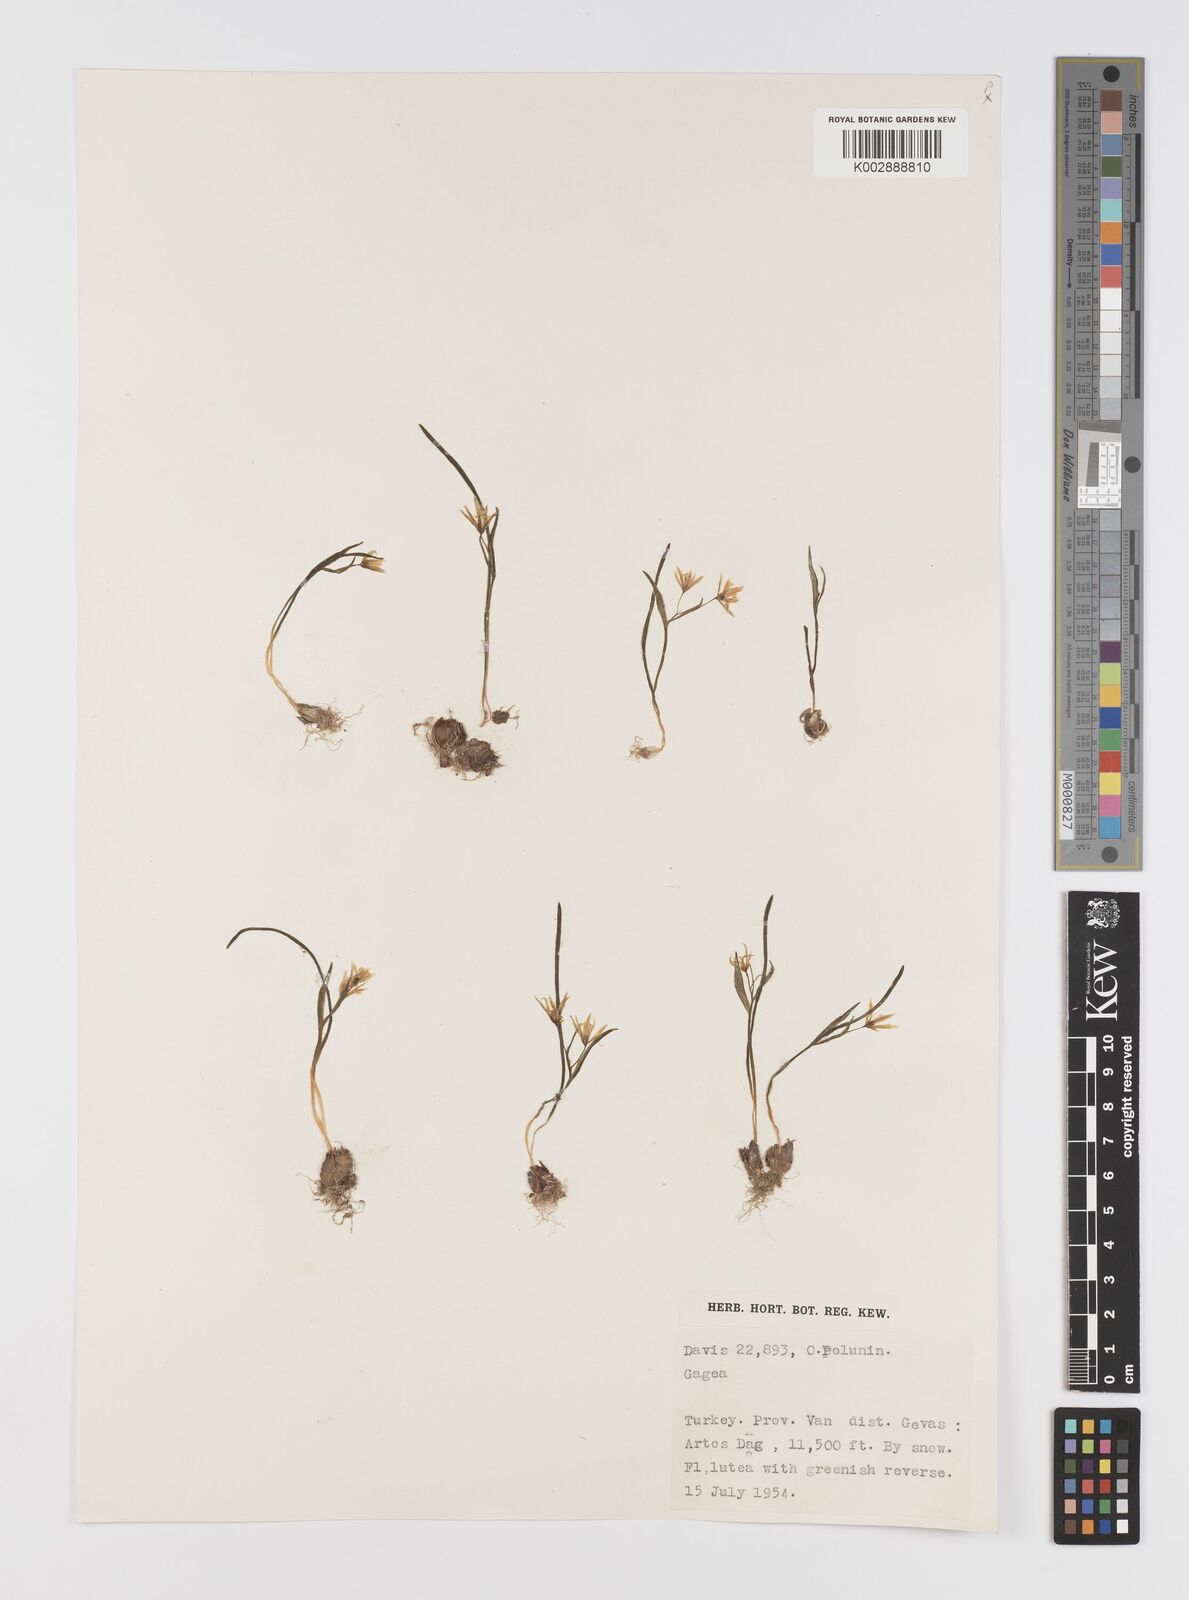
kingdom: Plantae
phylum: Tracheophyta
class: Liliopsida
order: Liliales
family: Liliaceae
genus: Gagea
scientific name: Gagea
